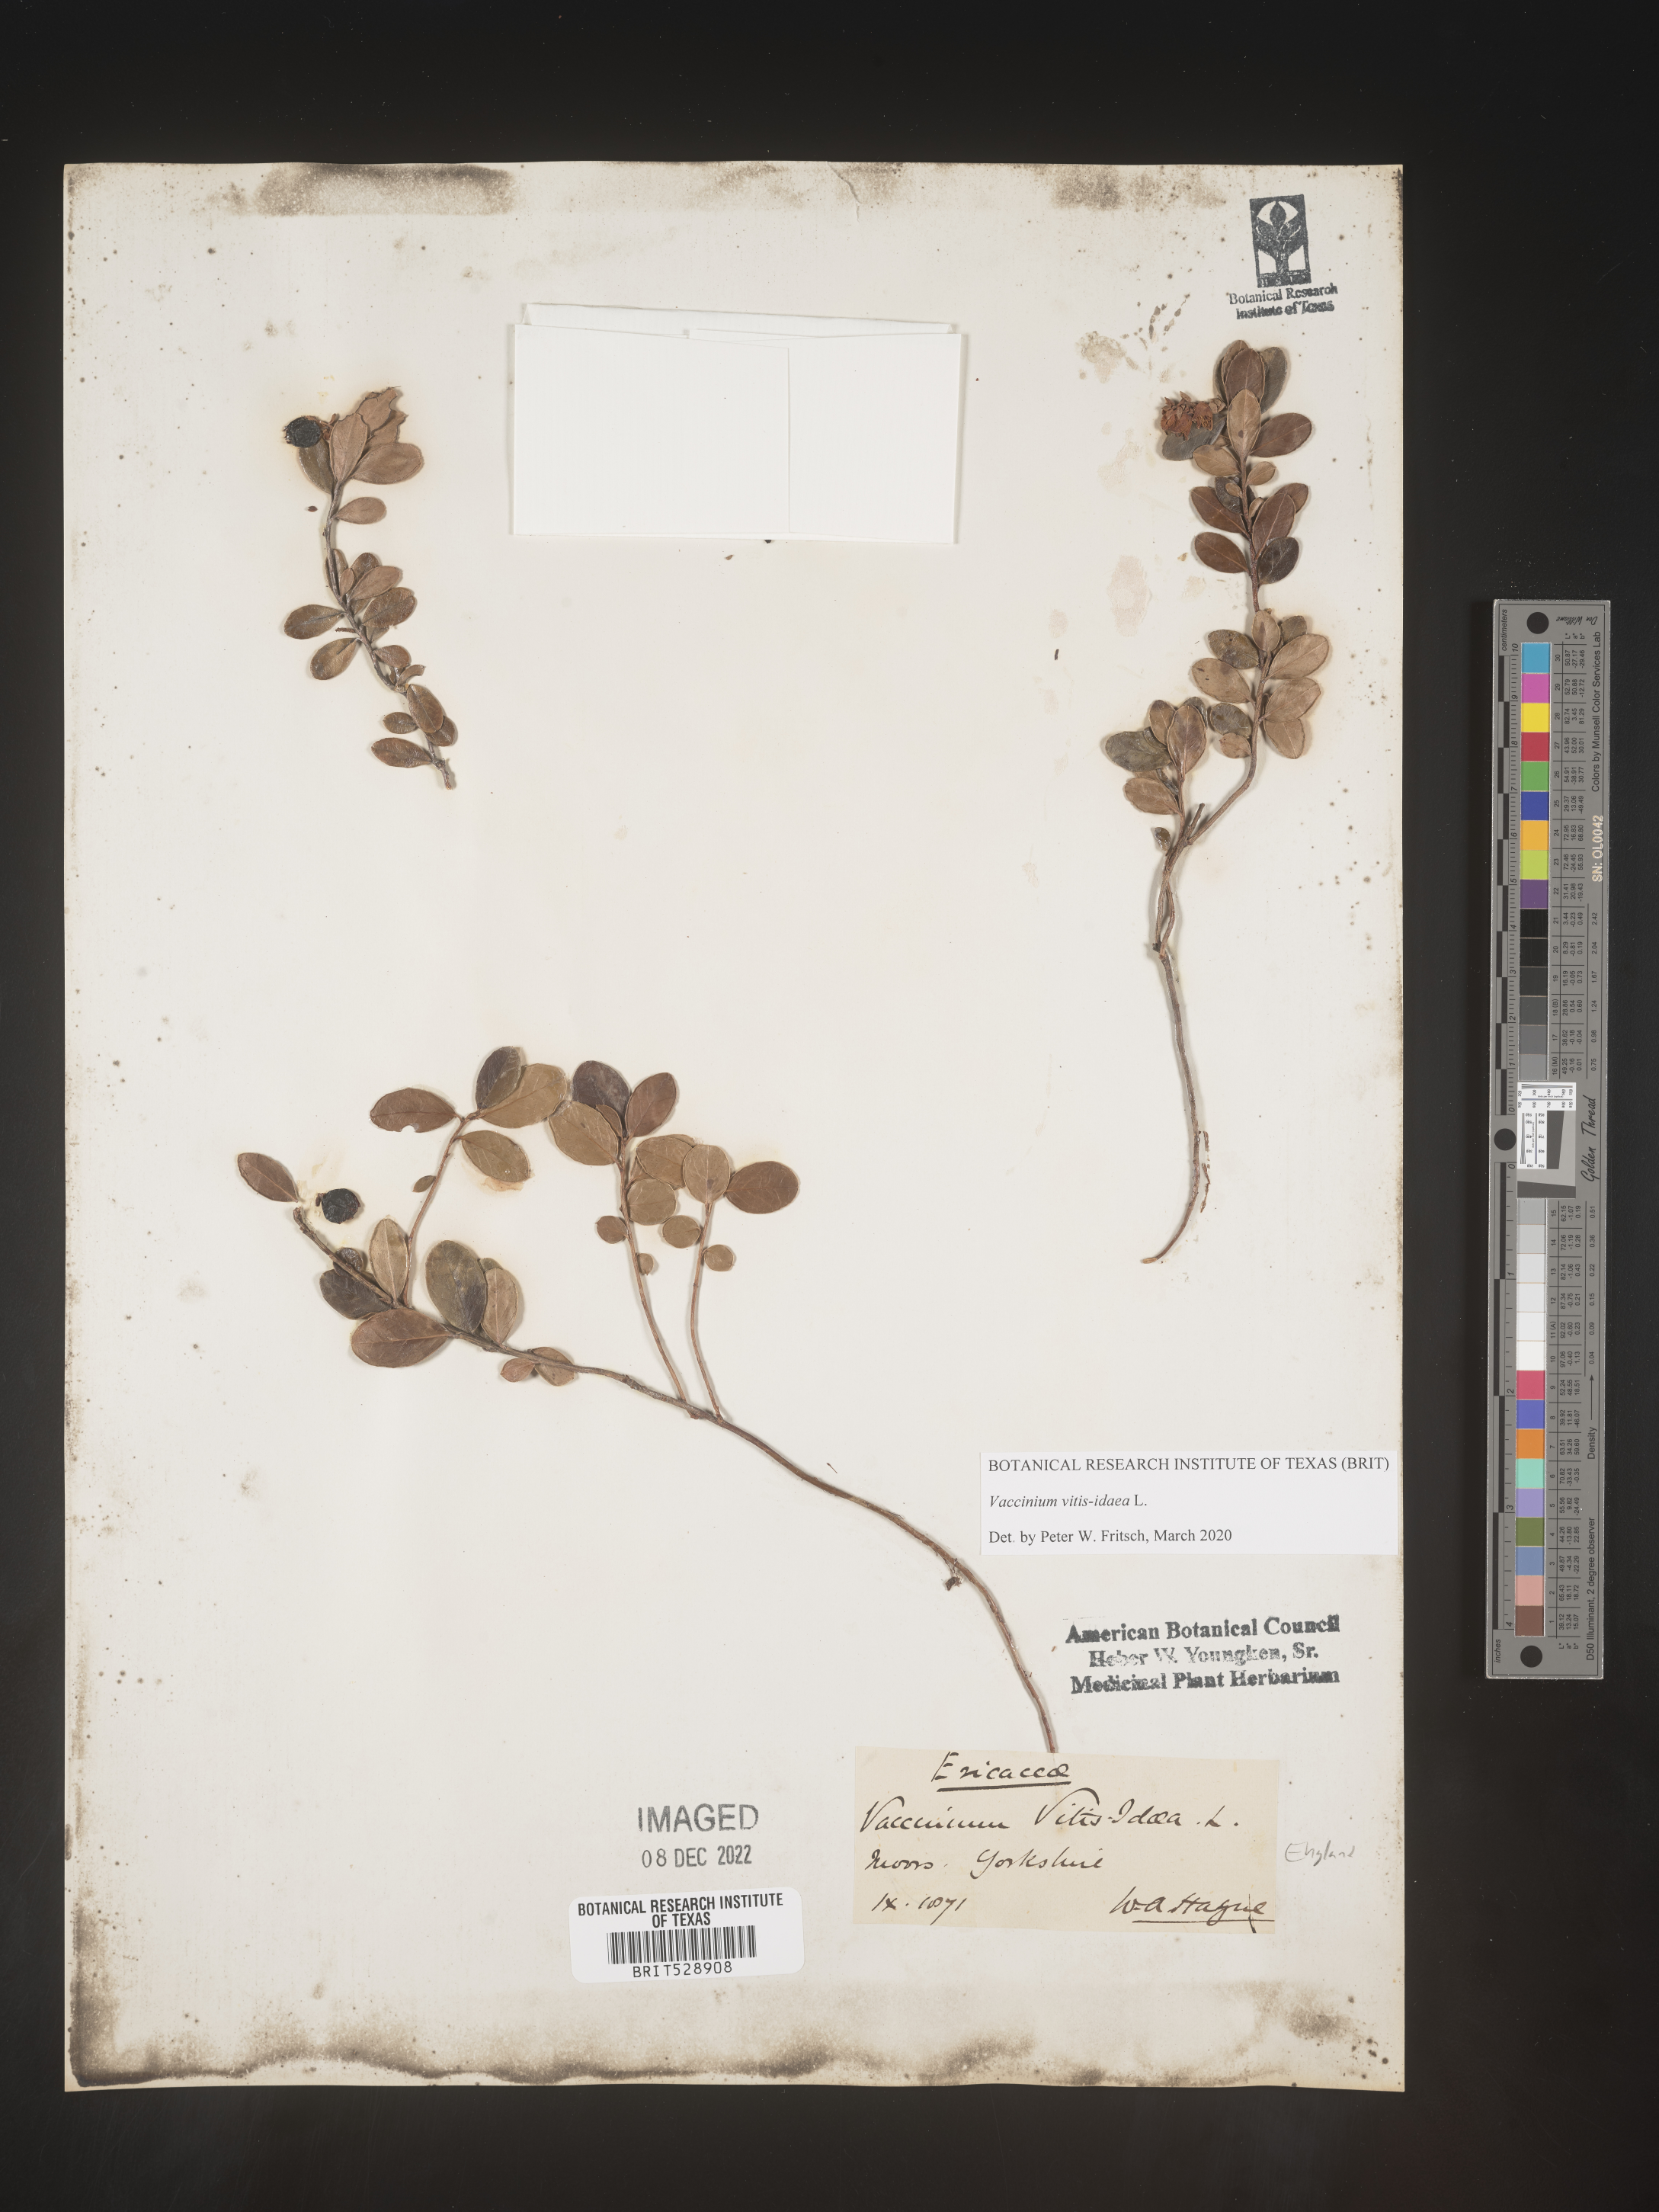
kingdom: Plantae
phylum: Tracheophyta
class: Magnoliopsida
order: Ericales
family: Ericaceae
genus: Vaccinium
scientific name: Vaccinium vitis-idaea
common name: Cowberry
